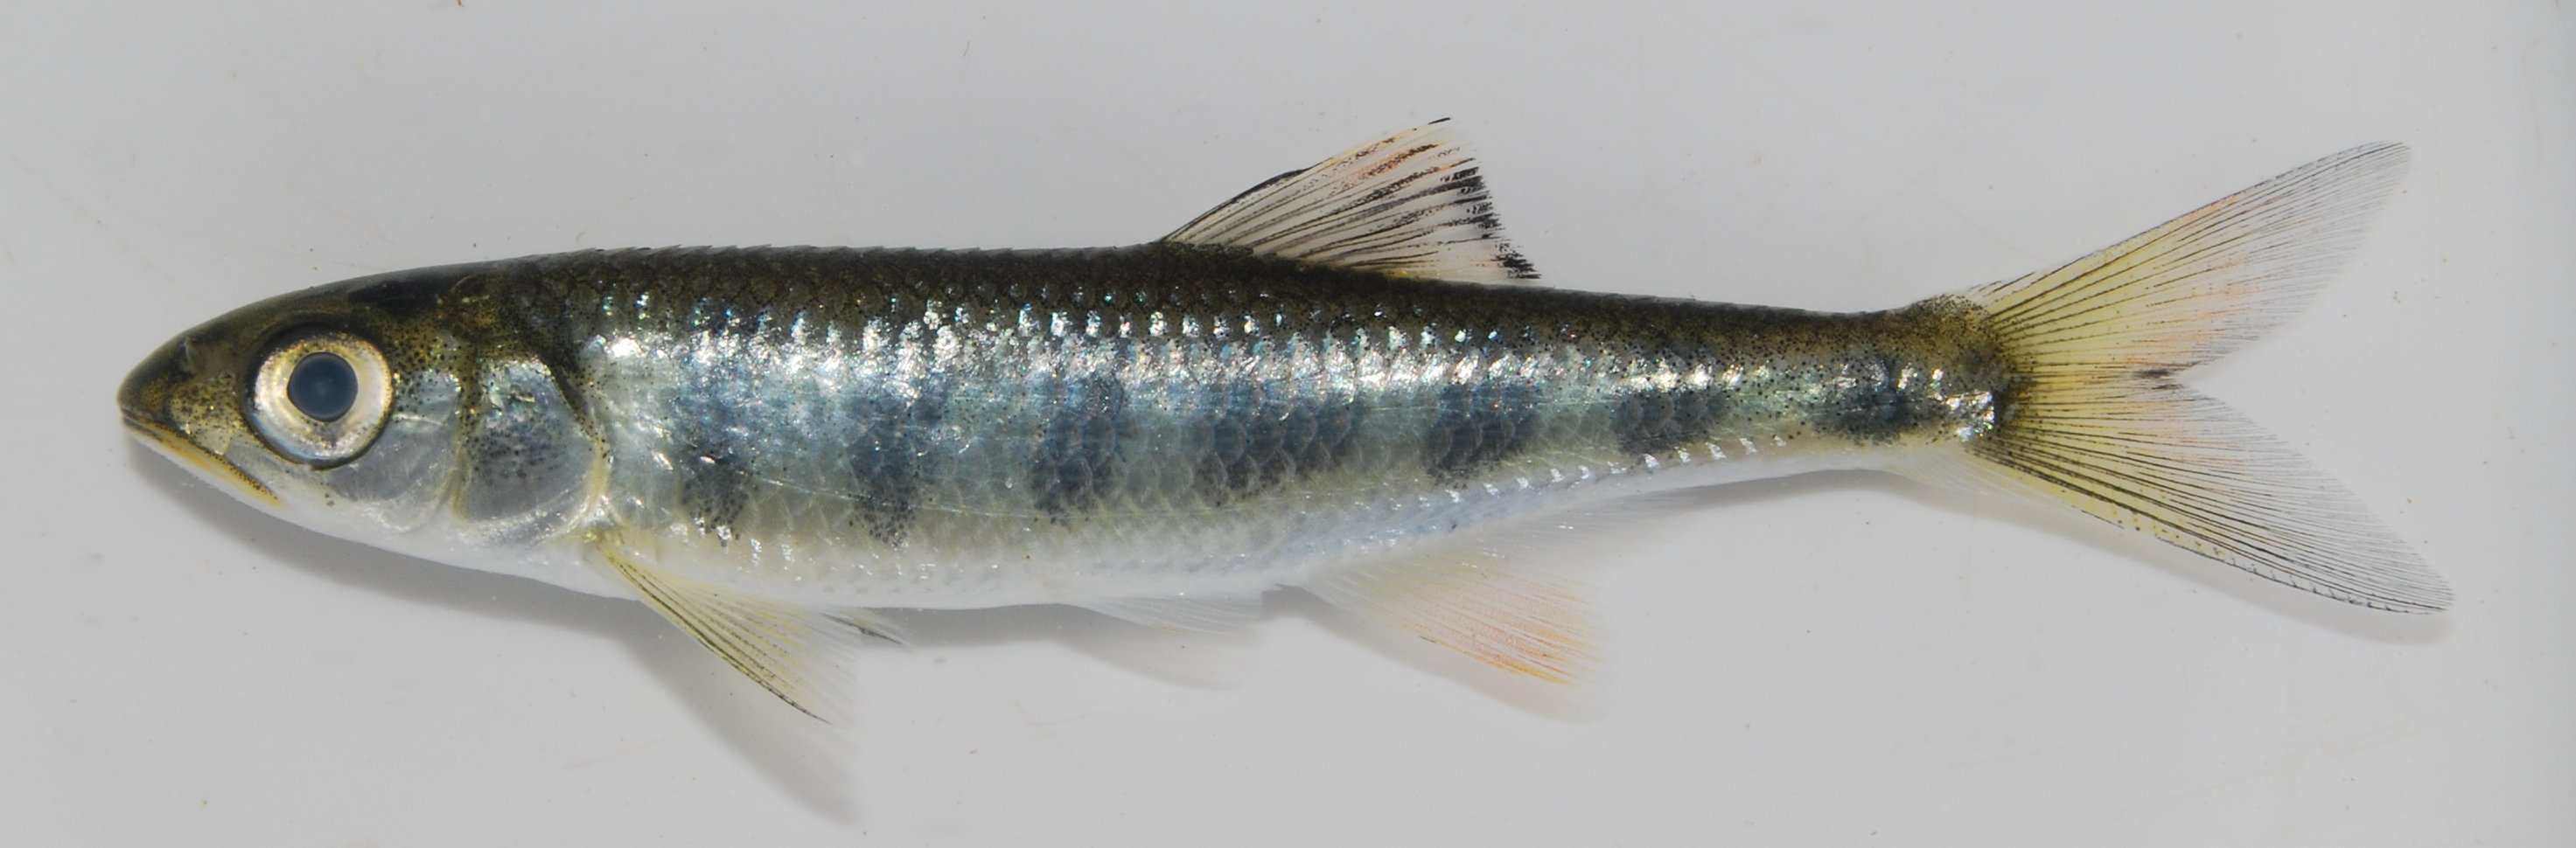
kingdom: Animalia
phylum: Chordata
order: Cypriniformes
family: Cyprinidae
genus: Opsaridium
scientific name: Opsaridium zambezense
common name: Barred minnow
